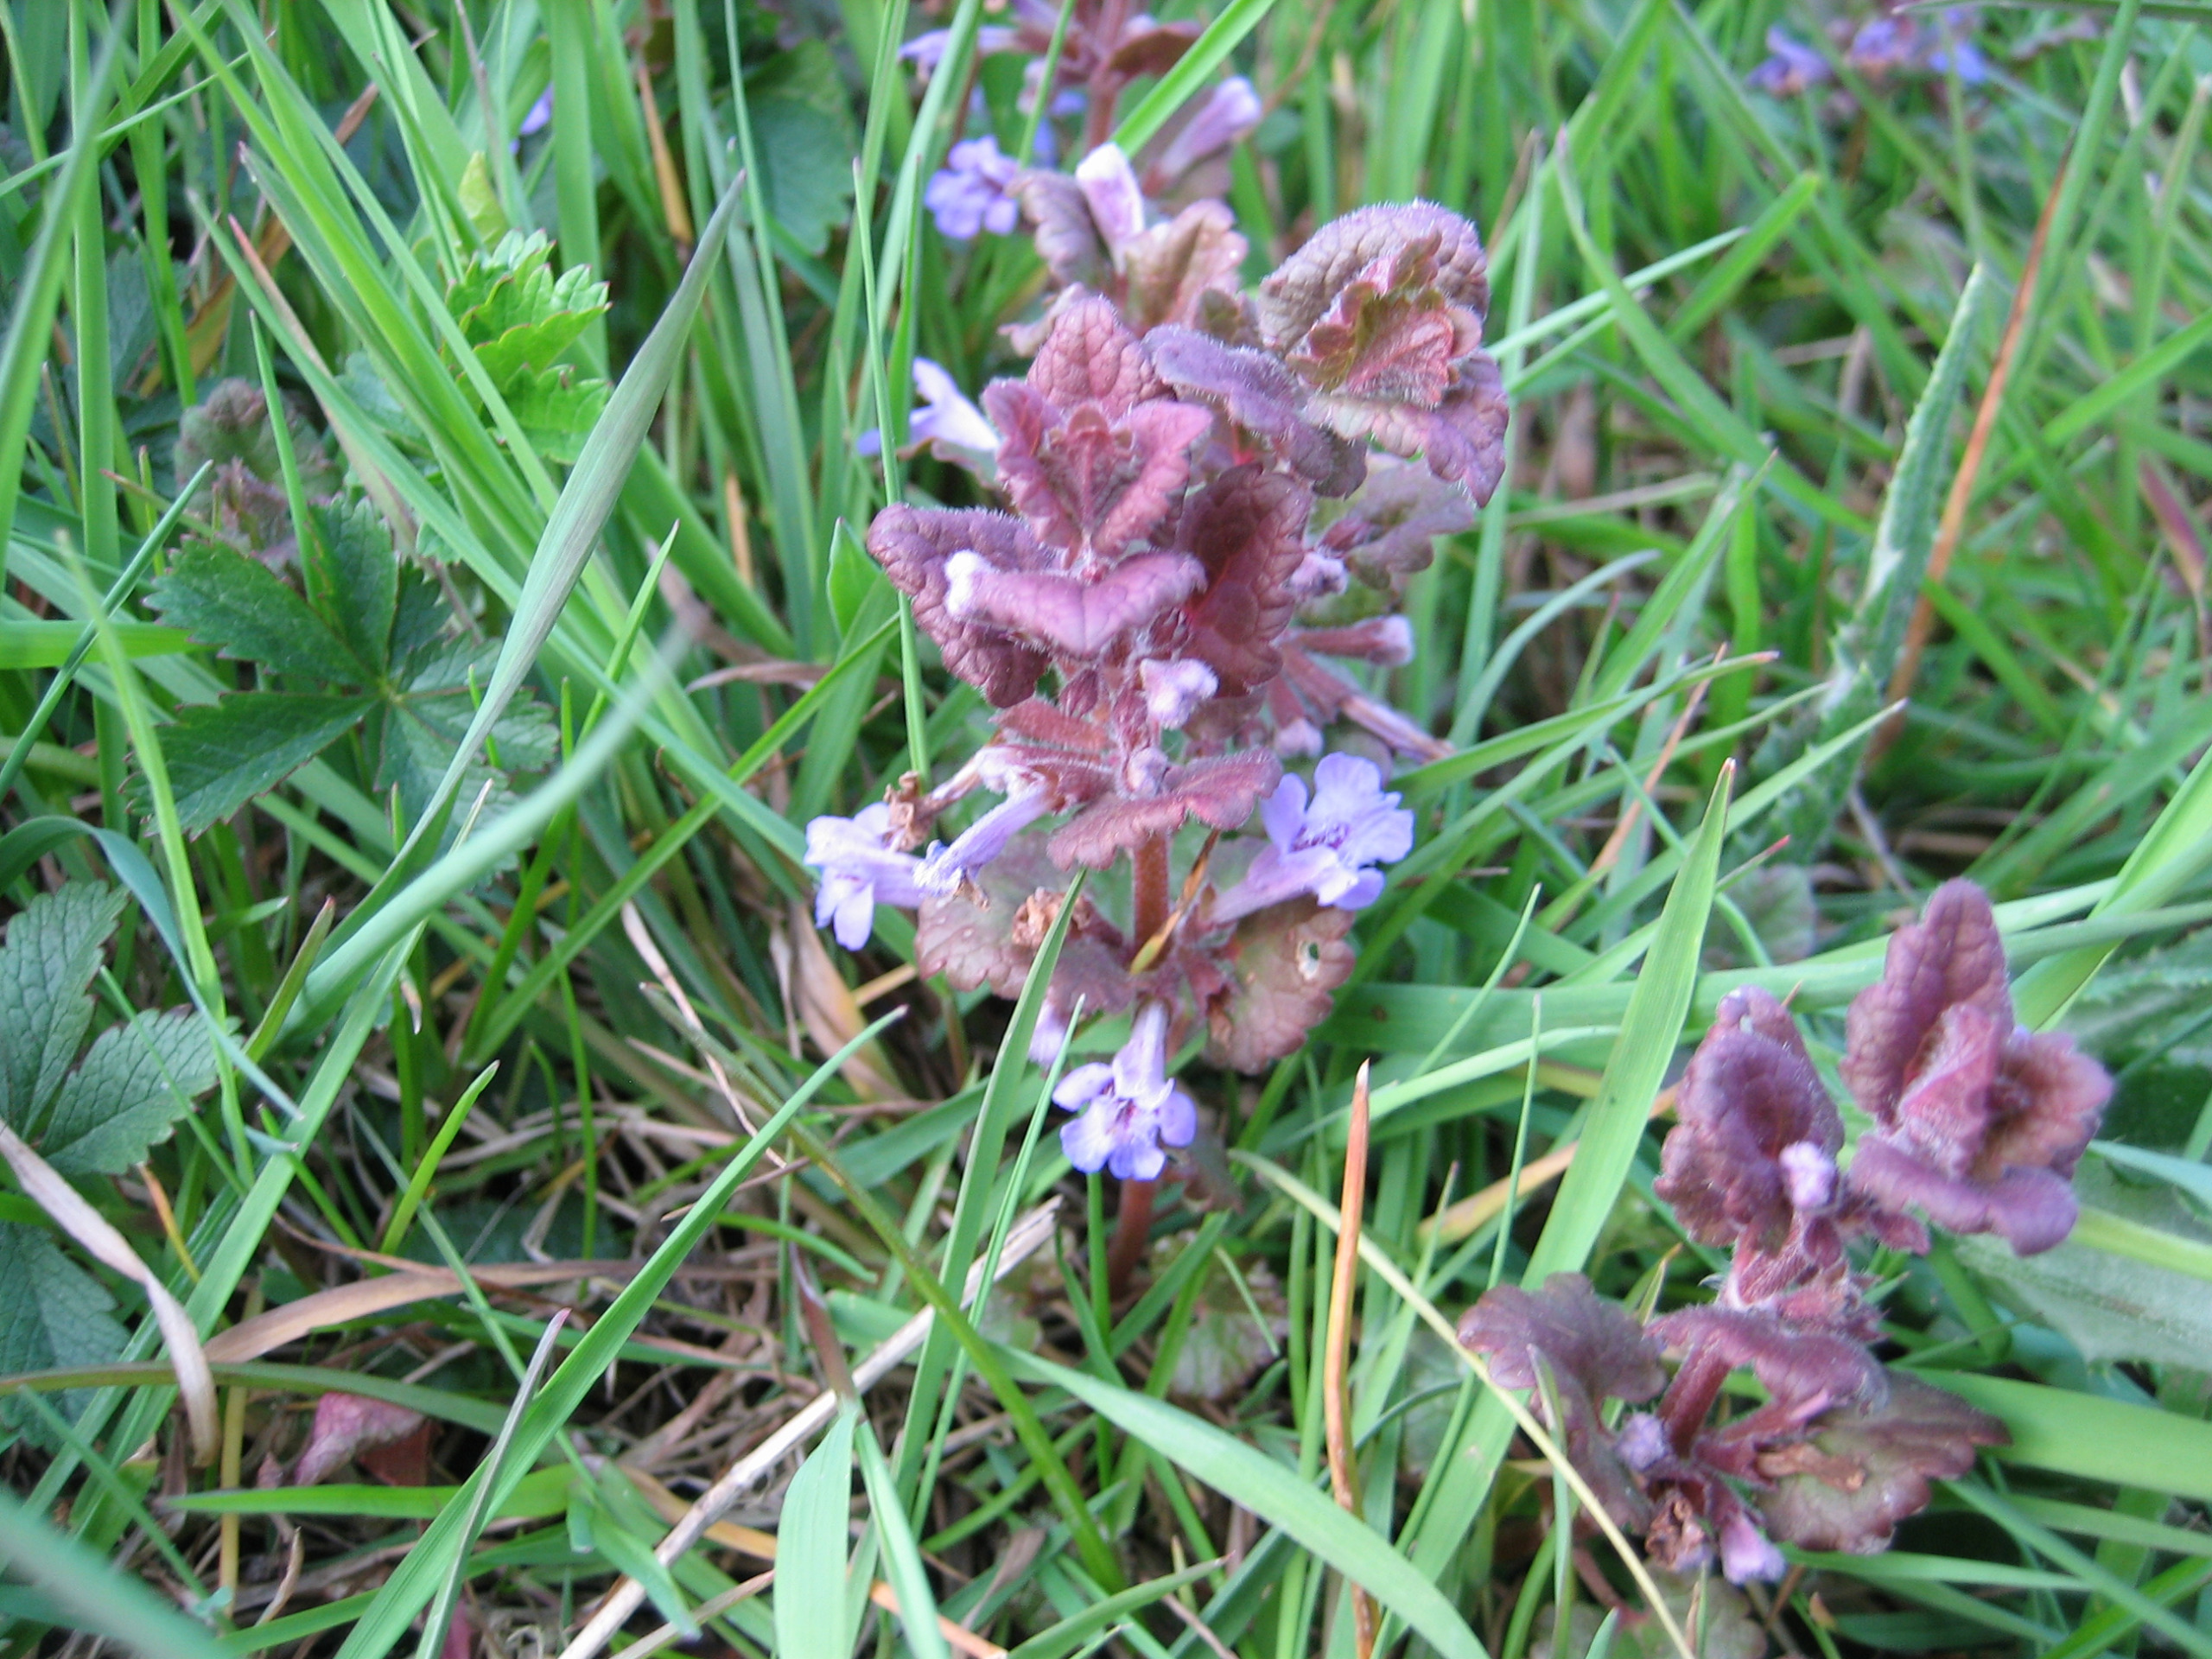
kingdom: Plantae
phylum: Tracheophyta
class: Magnoliopsida
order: Lamiales
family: Lamiaceae
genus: Glechoma
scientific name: Glechoma hederacea
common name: Korsknap
